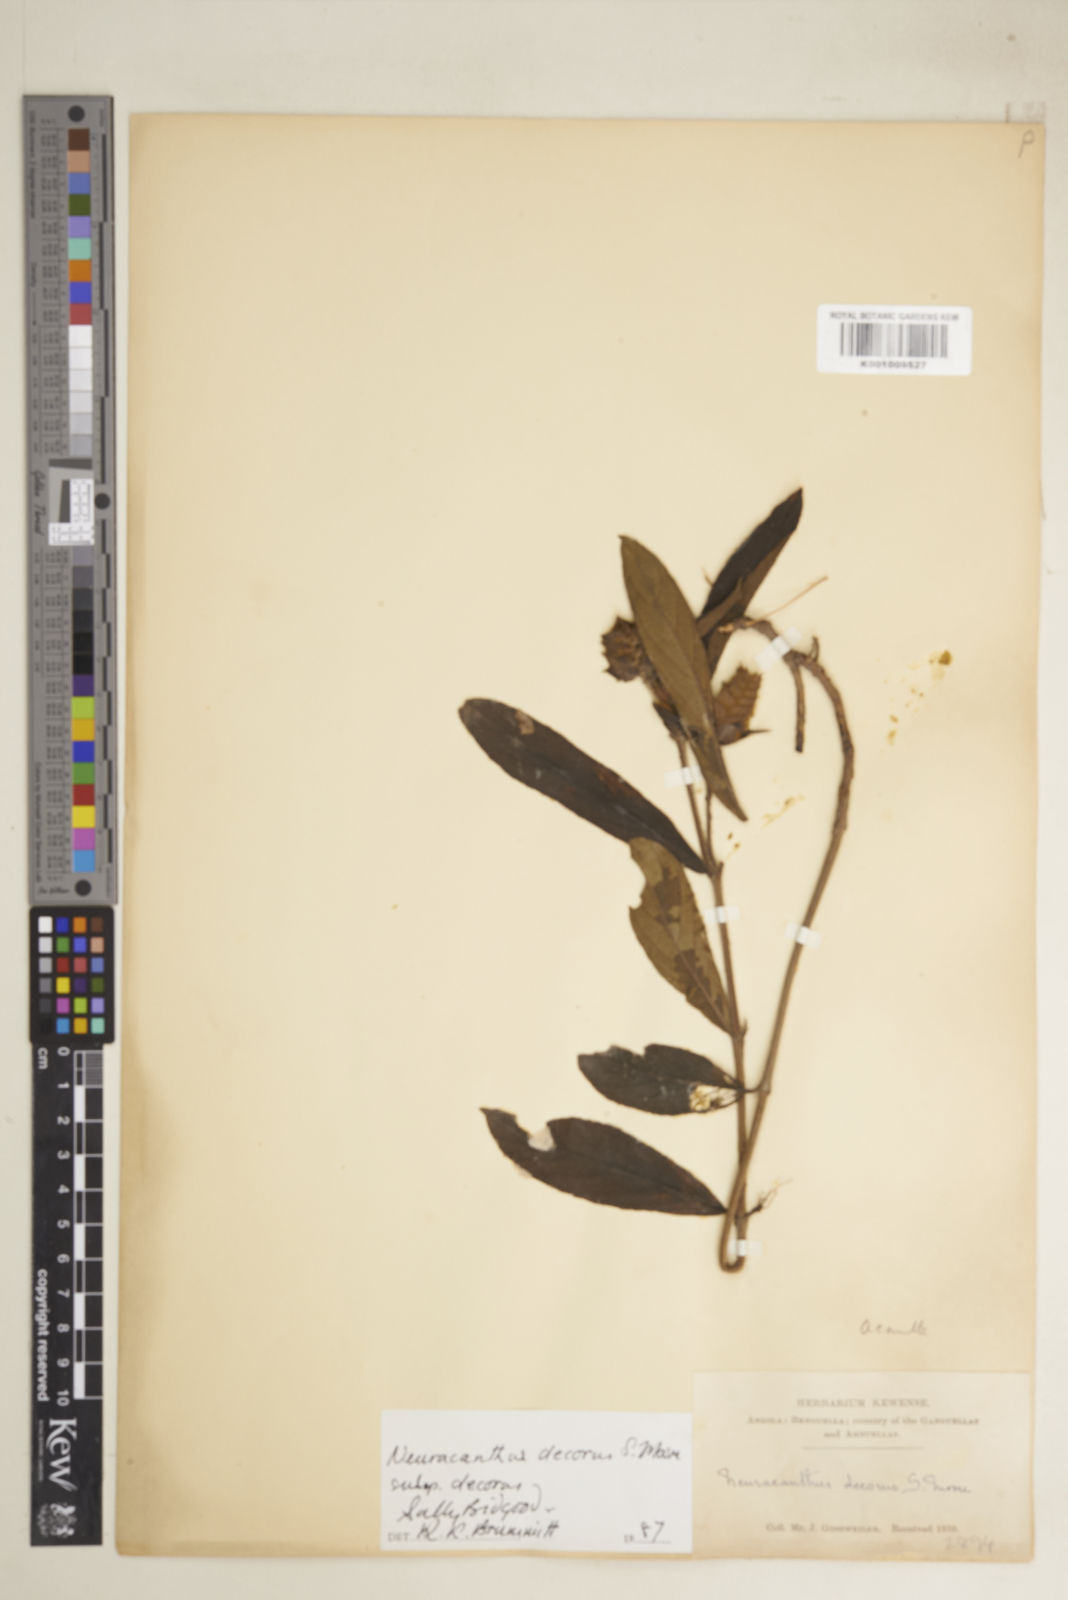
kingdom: Plantae
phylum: Tracheophyta
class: Magnoliopsida
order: Lamiales
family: Acanthaceae
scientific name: Acanthaceae
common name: Acanthaceae
